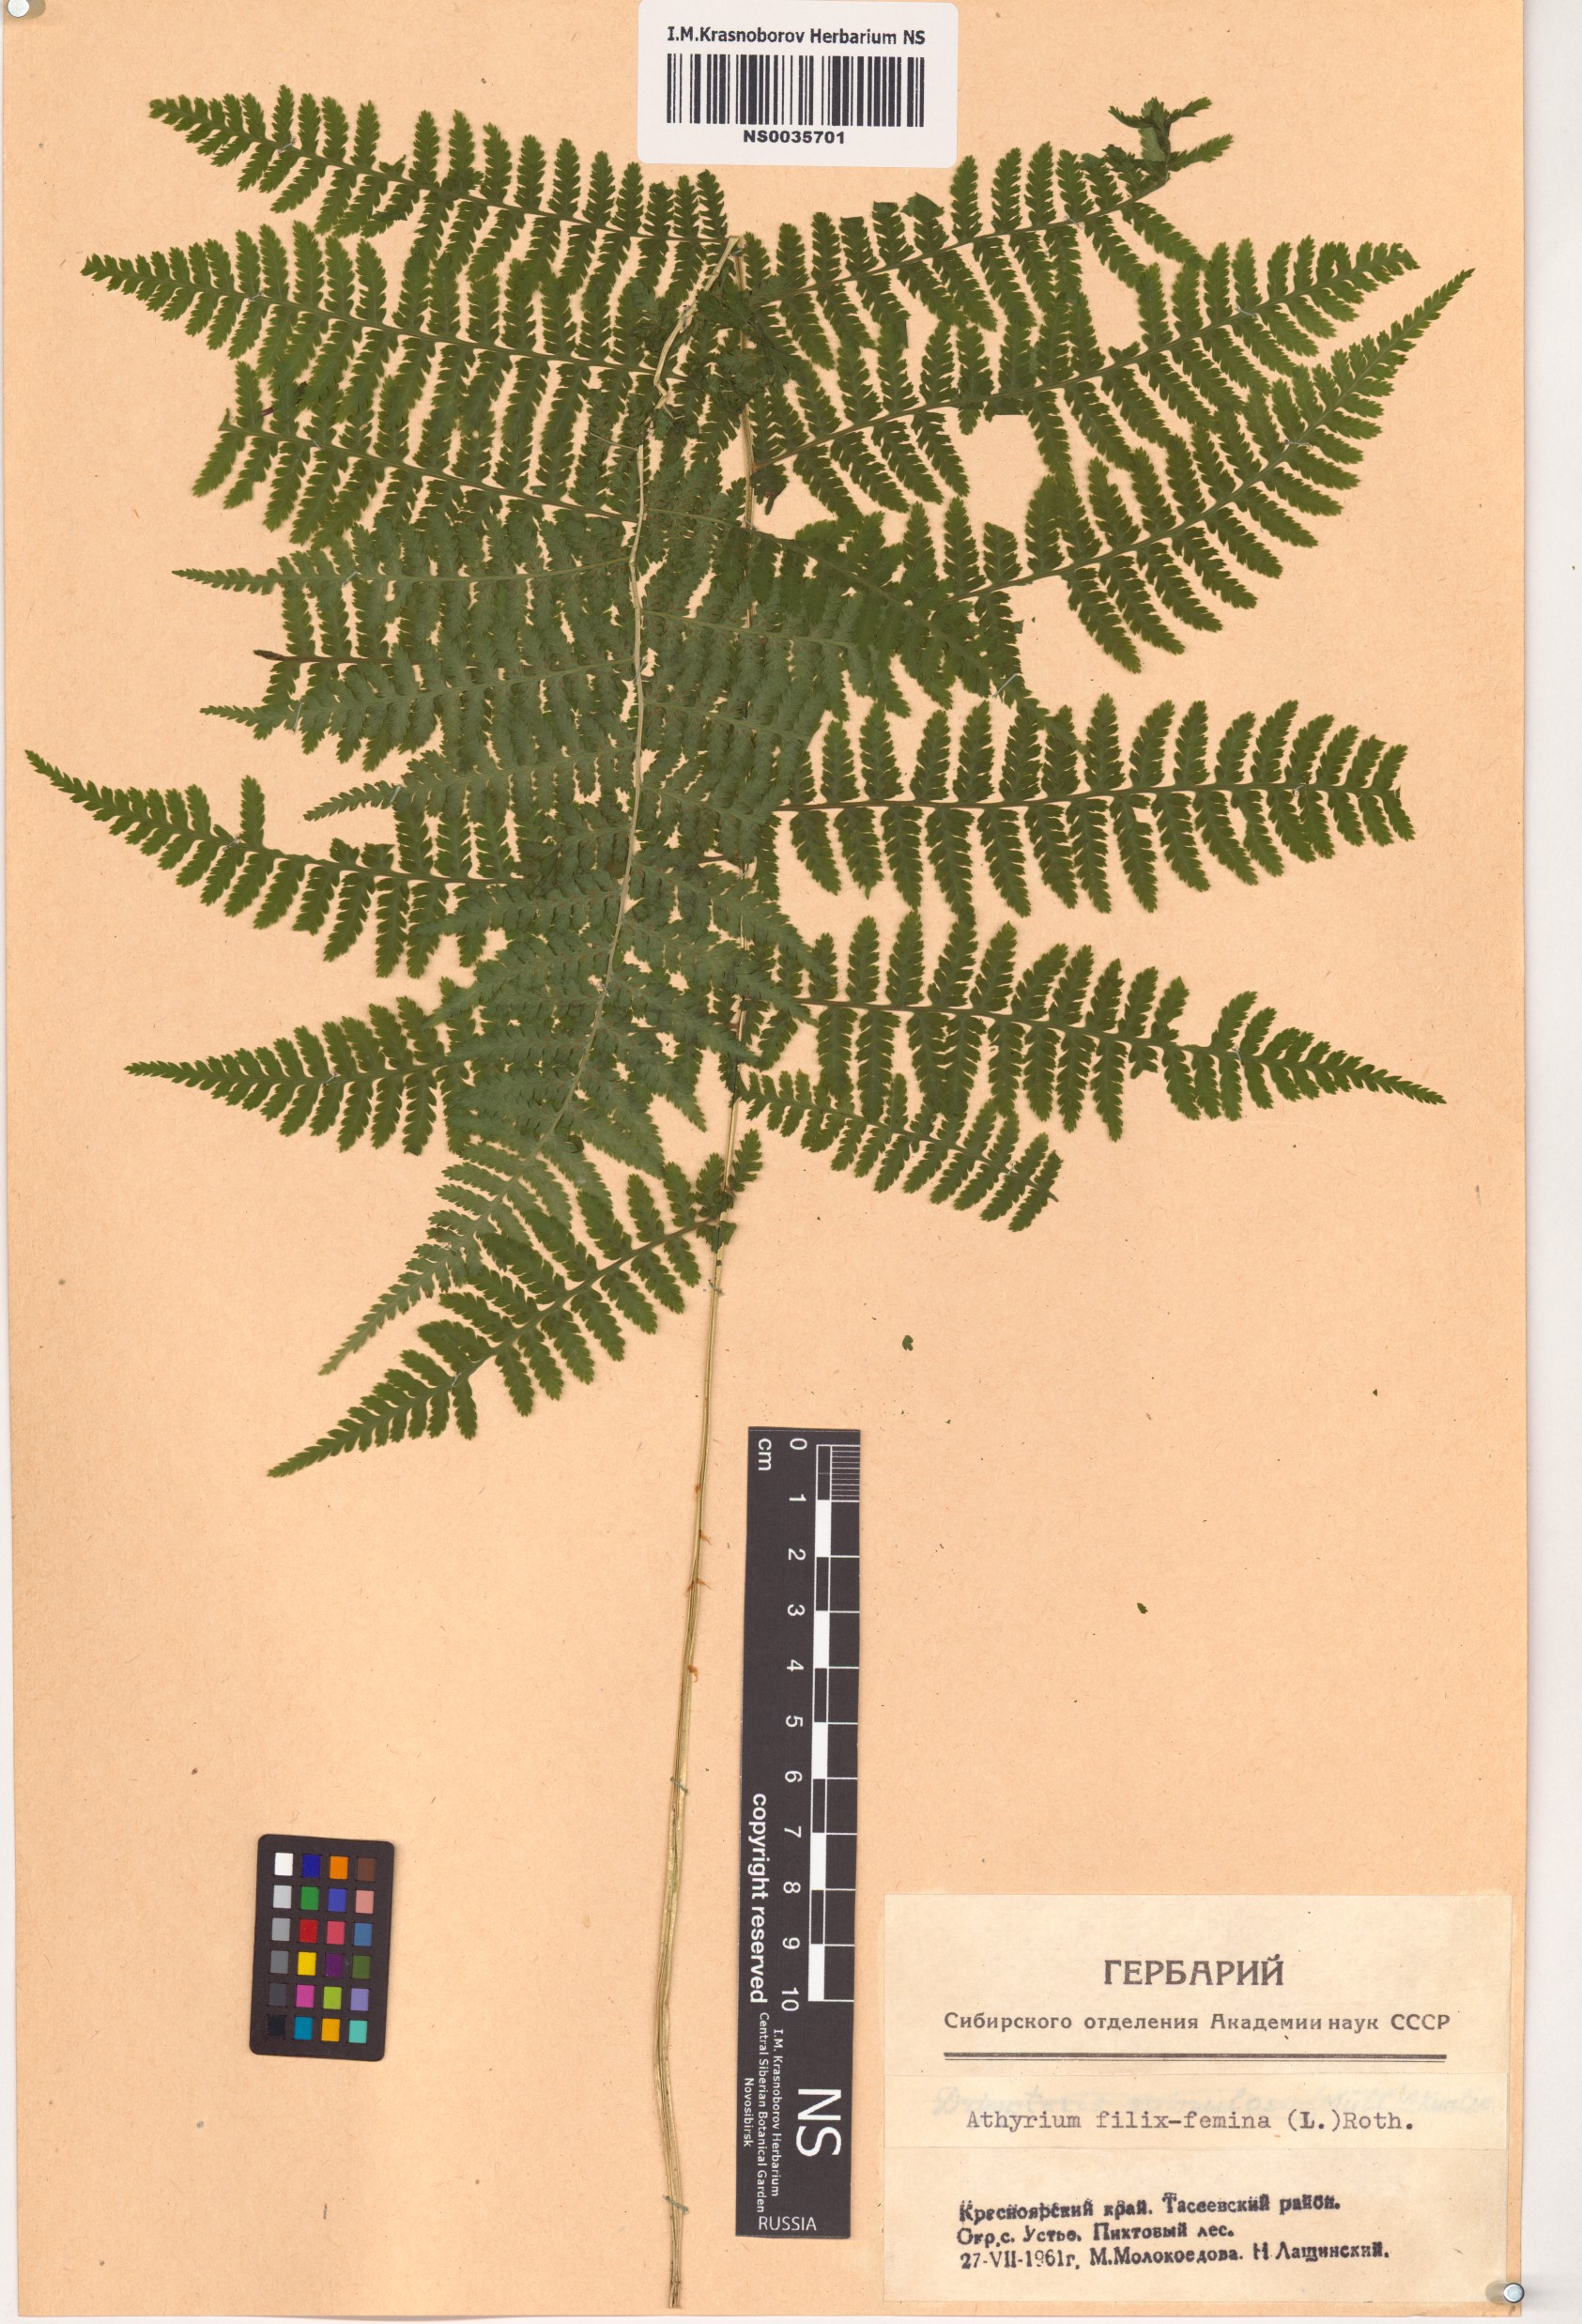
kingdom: Plantae
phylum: Tracheophyta
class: Polypodiopsida
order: Polypodiales
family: Athyriaceae
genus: Athyrium
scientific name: Athyrium filix-femina
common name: Lady fern
